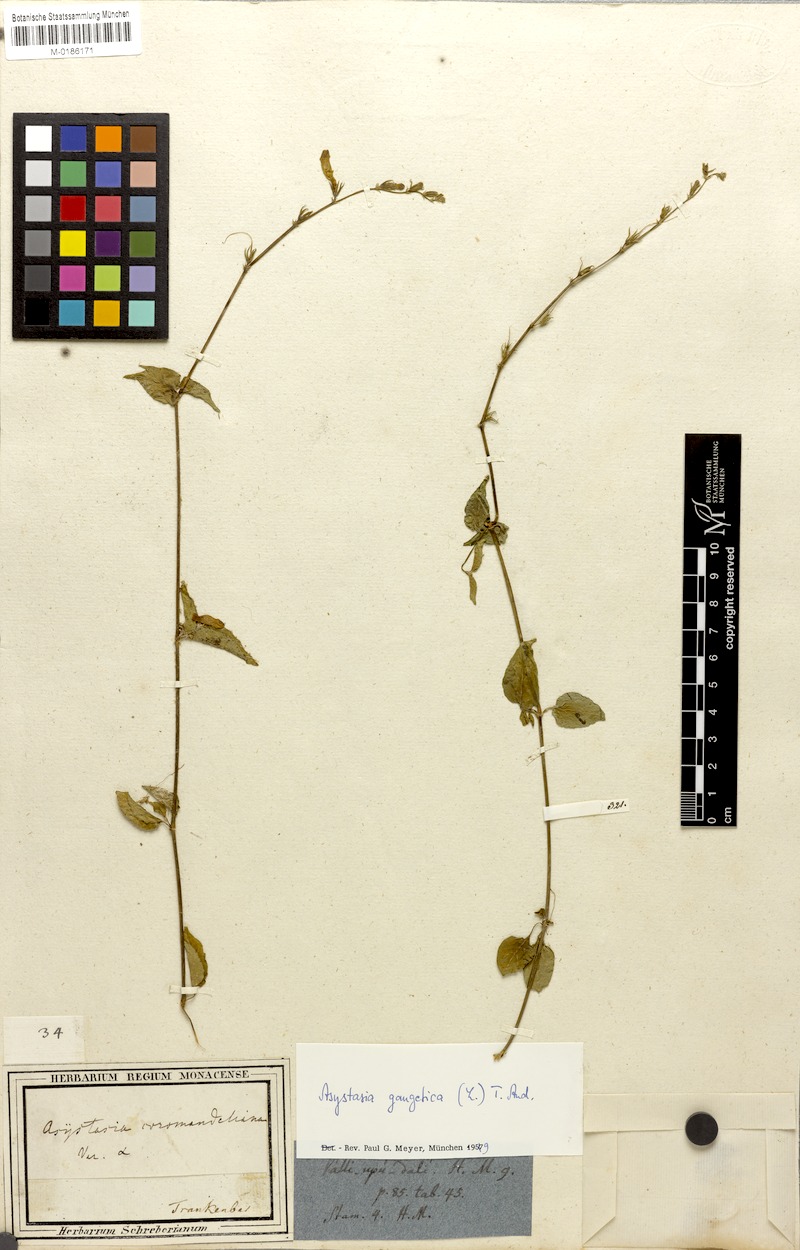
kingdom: Plantae
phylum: Tracheophyta
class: Magnoliopsida
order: Lamiales
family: Acanthaceae
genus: Asystasia
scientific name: Asystasia gangetica
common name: Chinese violet
